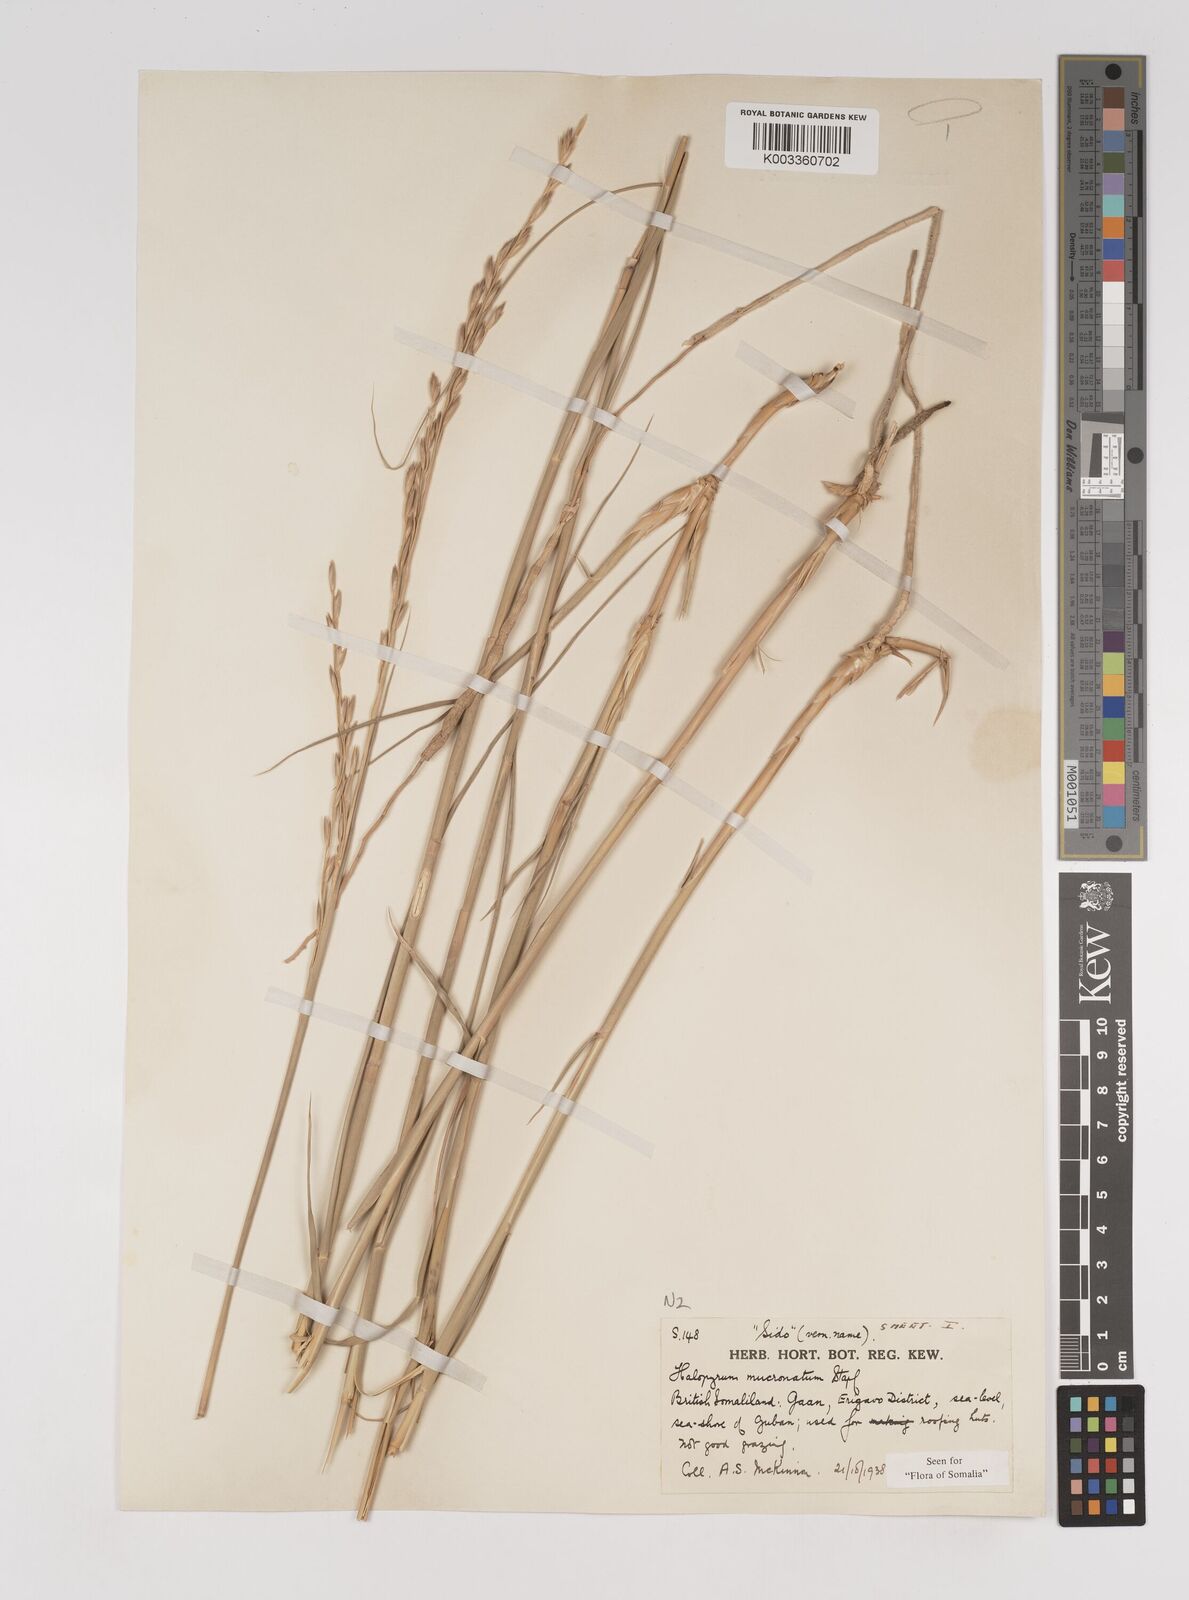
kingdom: Plantae
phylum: Tracheophyta
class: Liliopsida
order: Poales
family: Poaceae
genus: Halopyrum
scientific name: Halopyrum mucronatum
